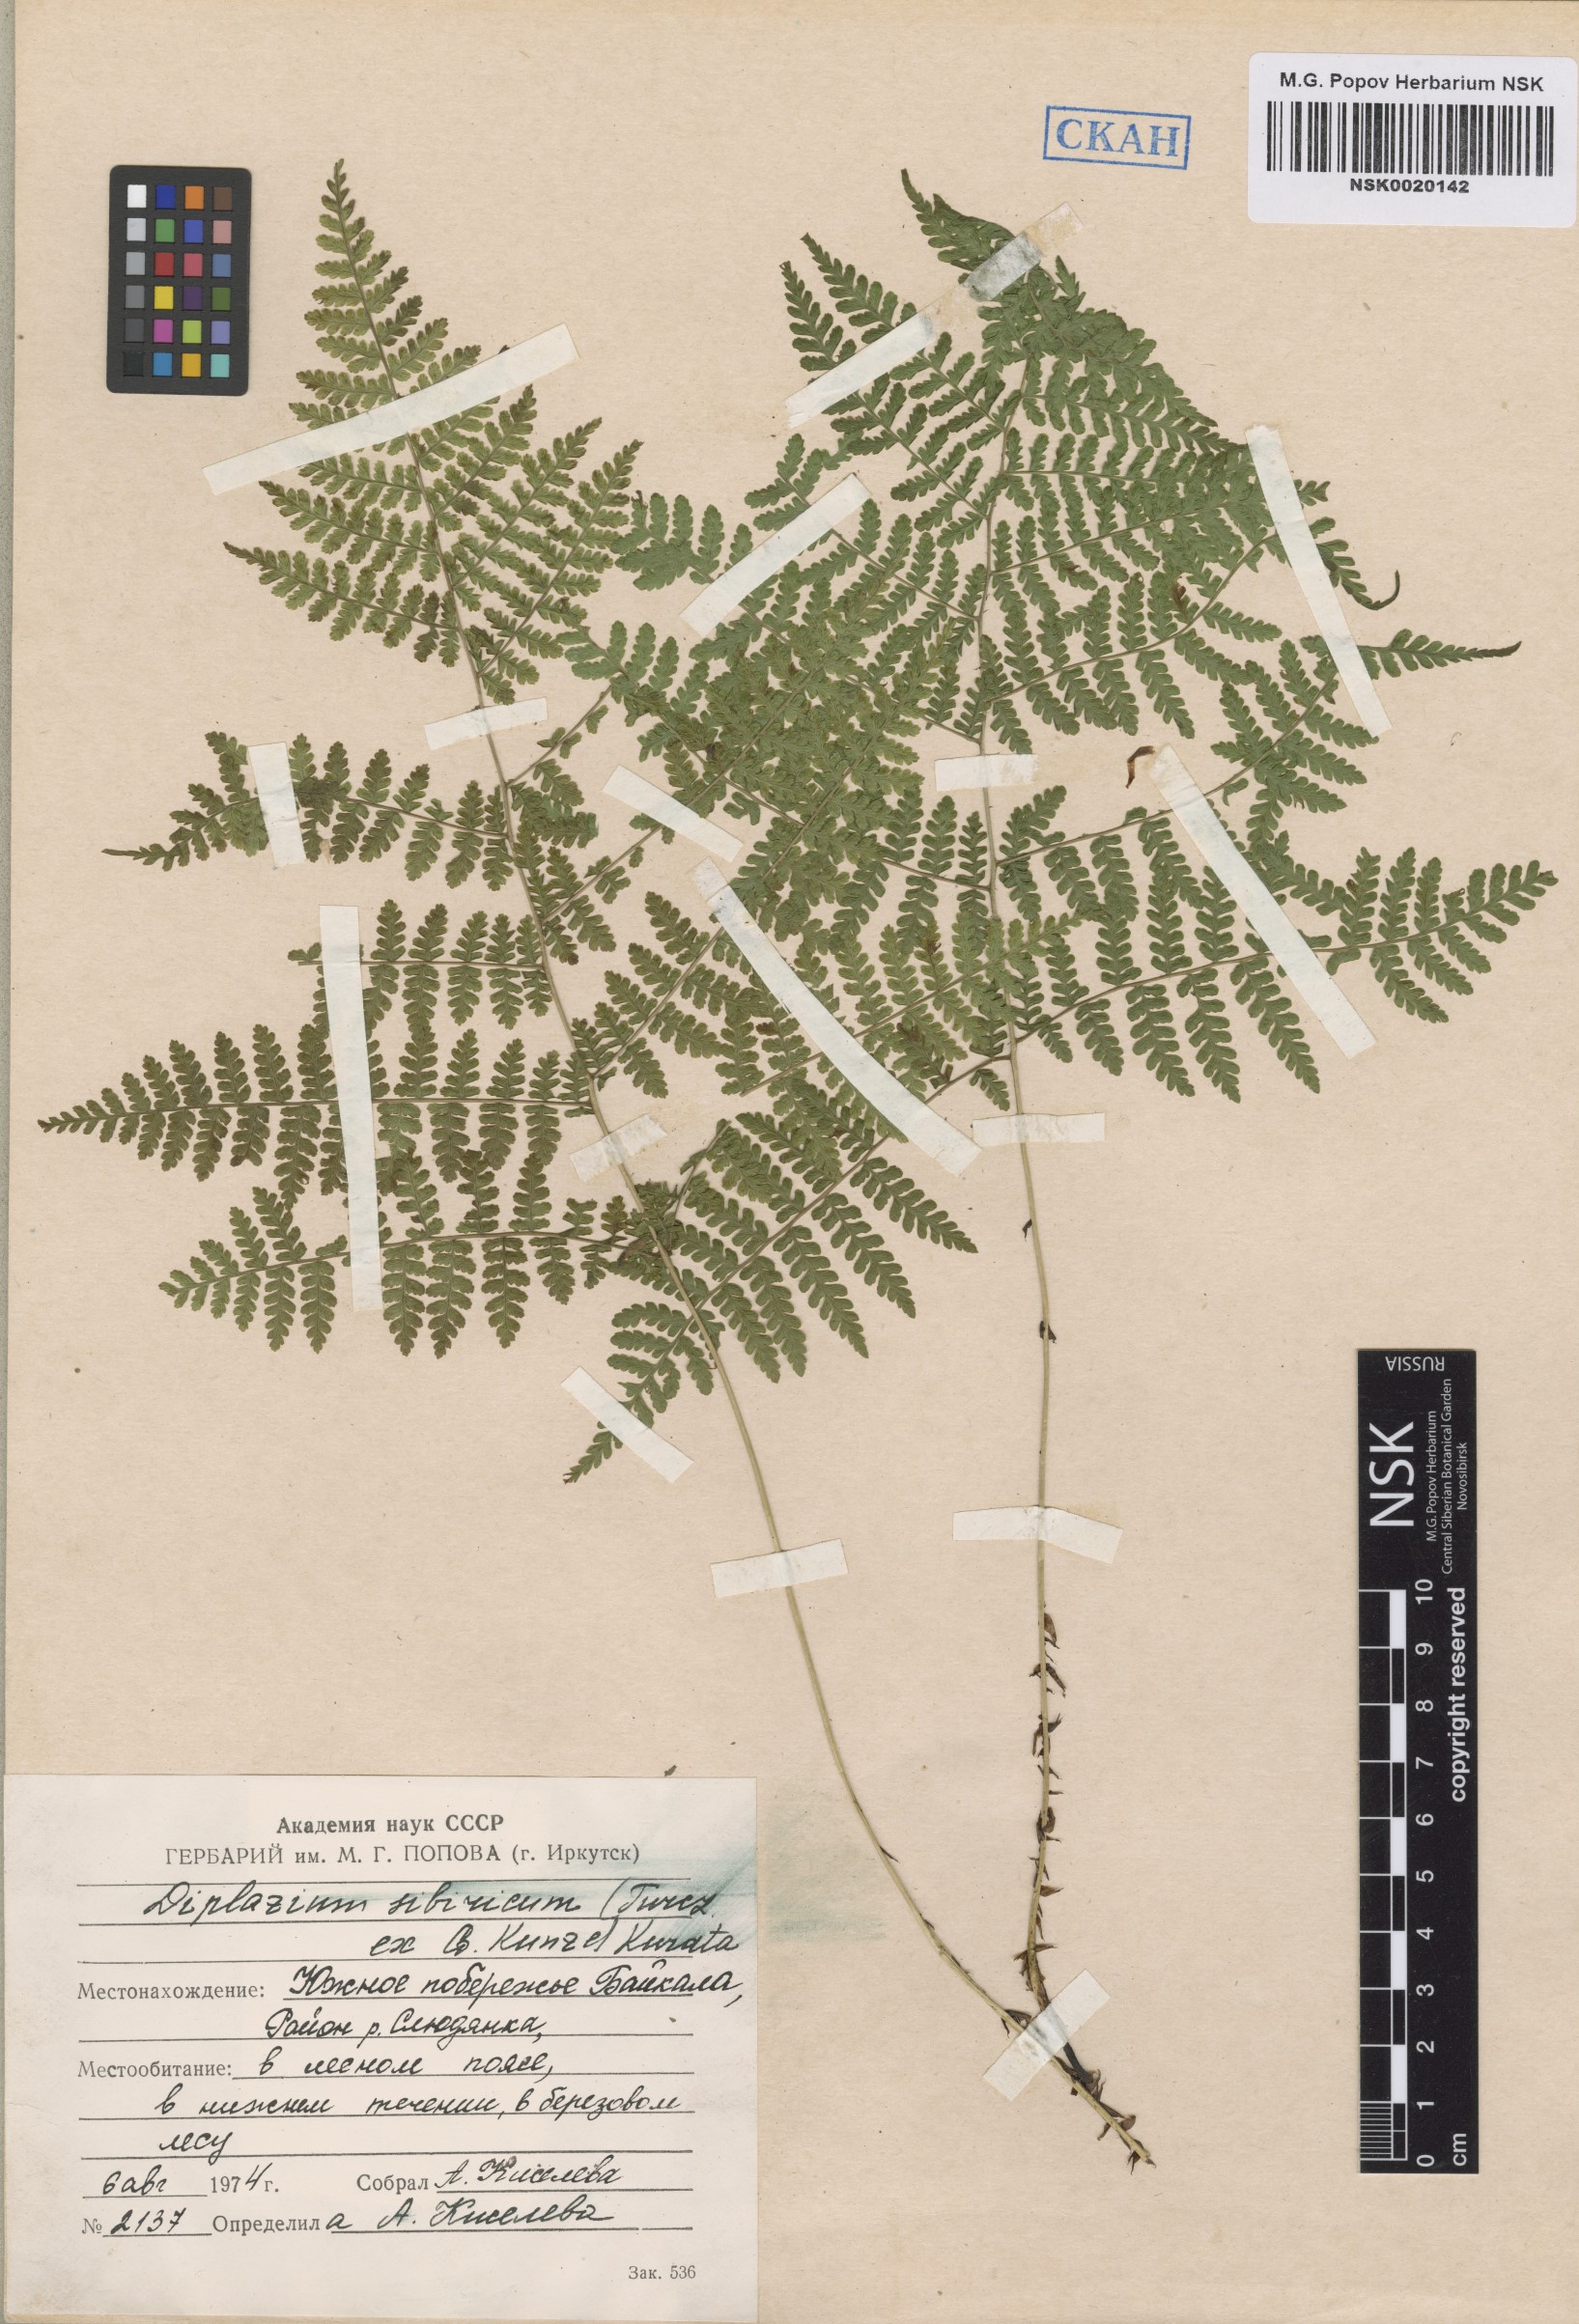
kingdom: Plantae
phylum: Tracheophyta
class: Polypodiopsida
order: Polypodiales
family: Athyriaceae
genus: Diplazium
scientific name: Diplazium sibiricum
